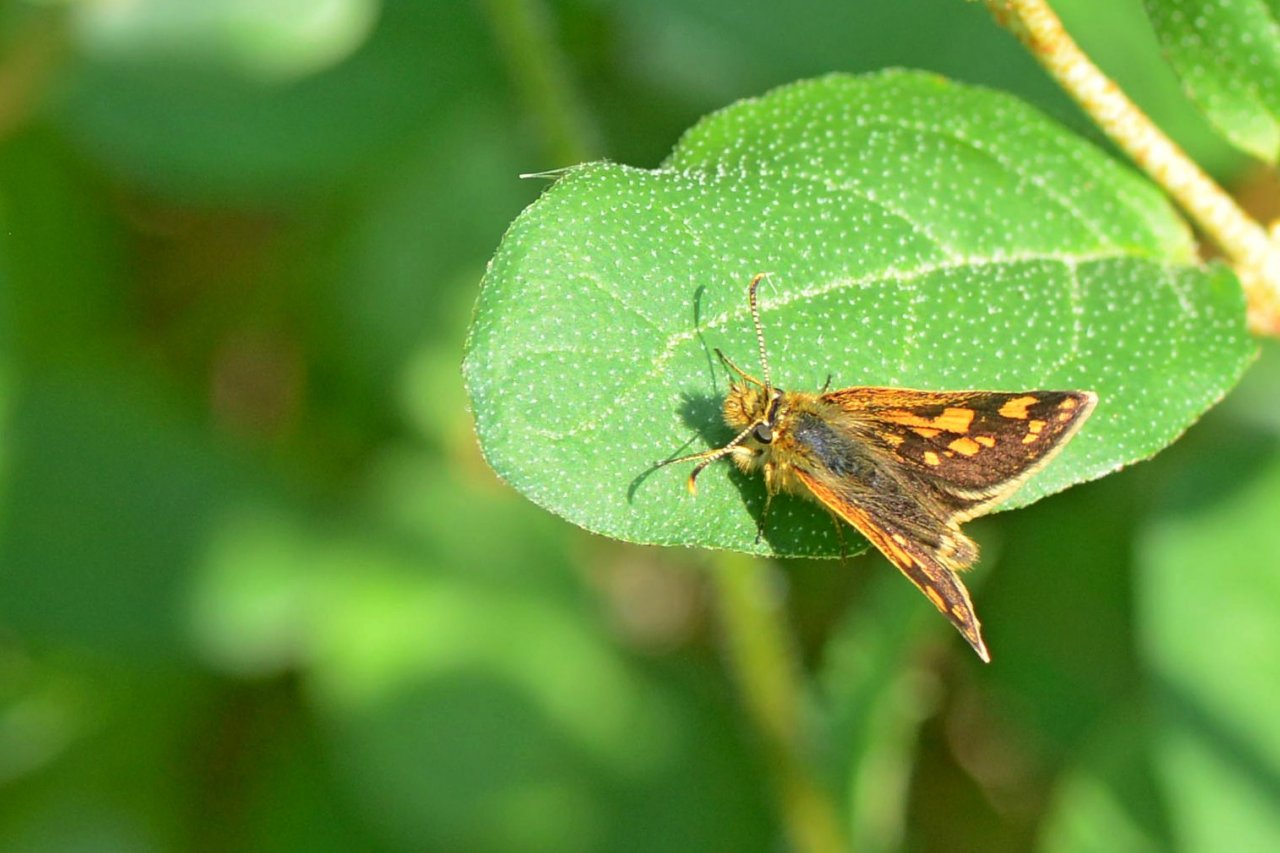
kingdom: Animalia
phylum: Arthropoda
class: Insecta
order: Lepidoptera
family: Hesperiidae
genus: Carterocephalus
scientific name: Carterocephalus palaemon
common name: Chequered Skipper
